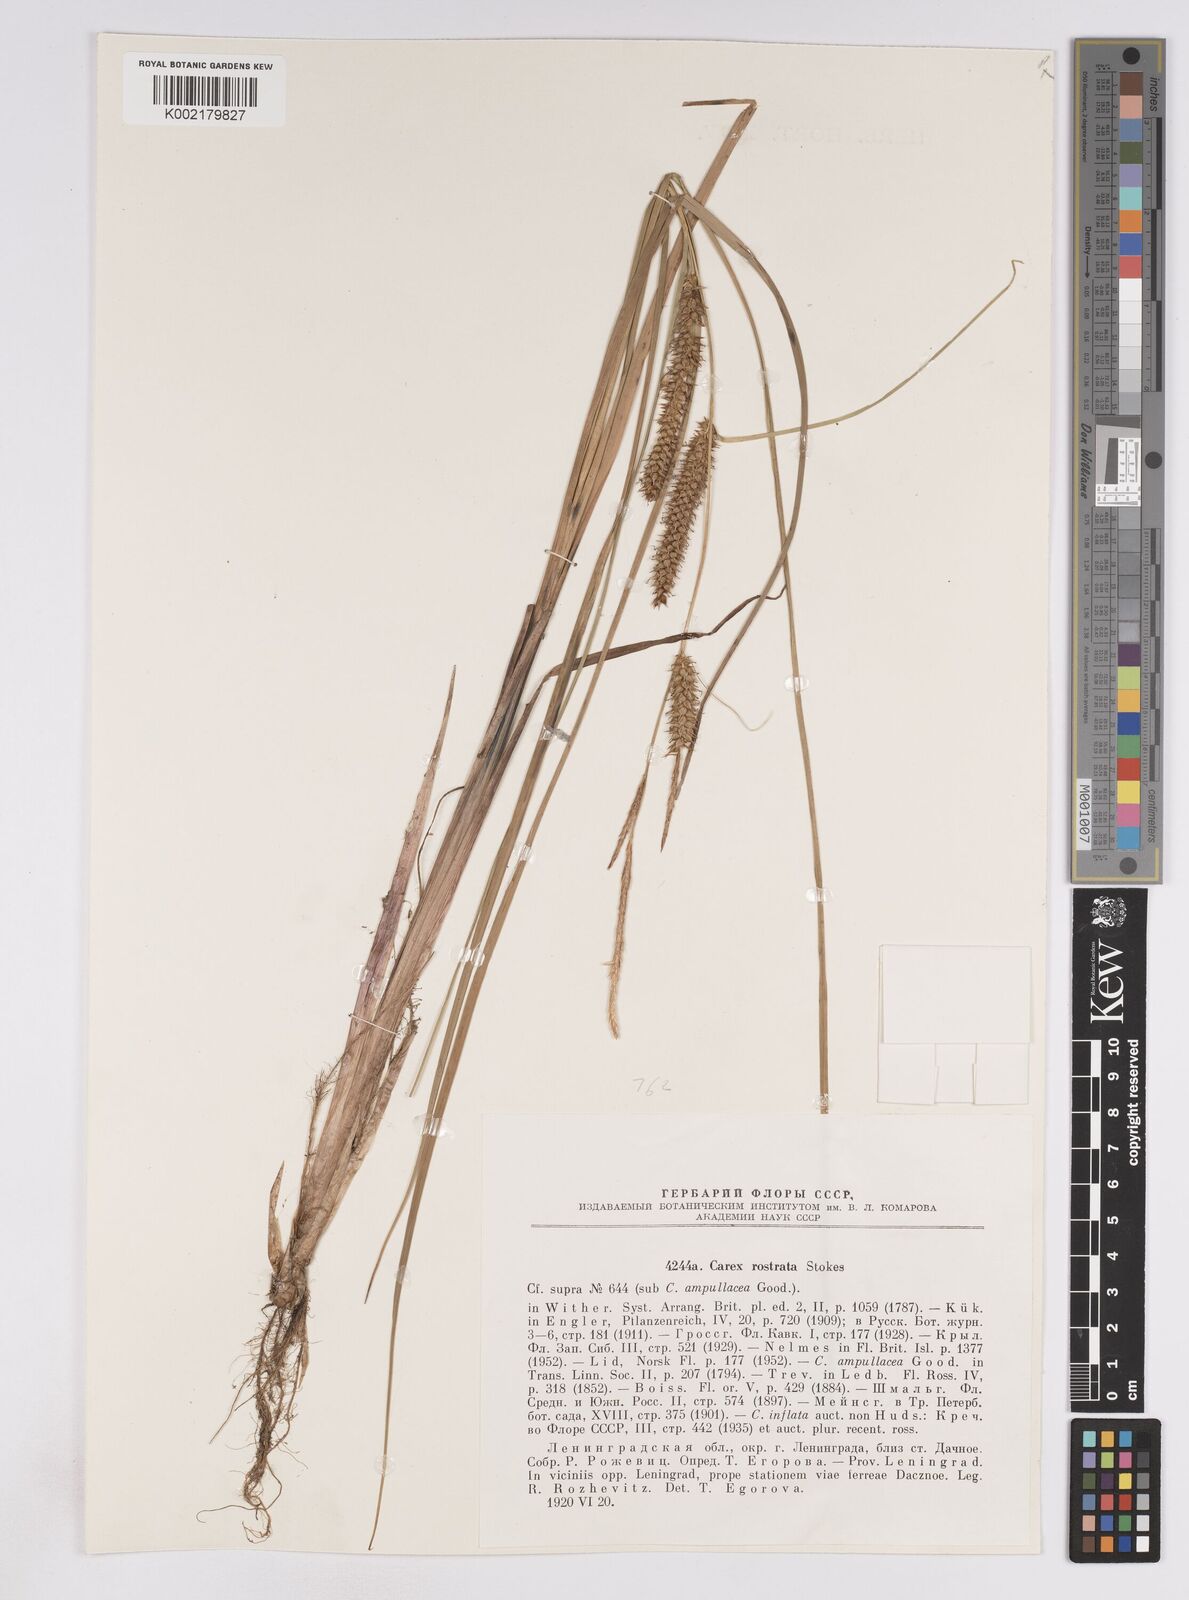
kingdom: Plantae
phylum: Tracheophyta
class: Liliopsida
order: Poales
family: Cyperaceae
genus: Carex
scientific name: Carex rostrata
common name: Bottle sedge
